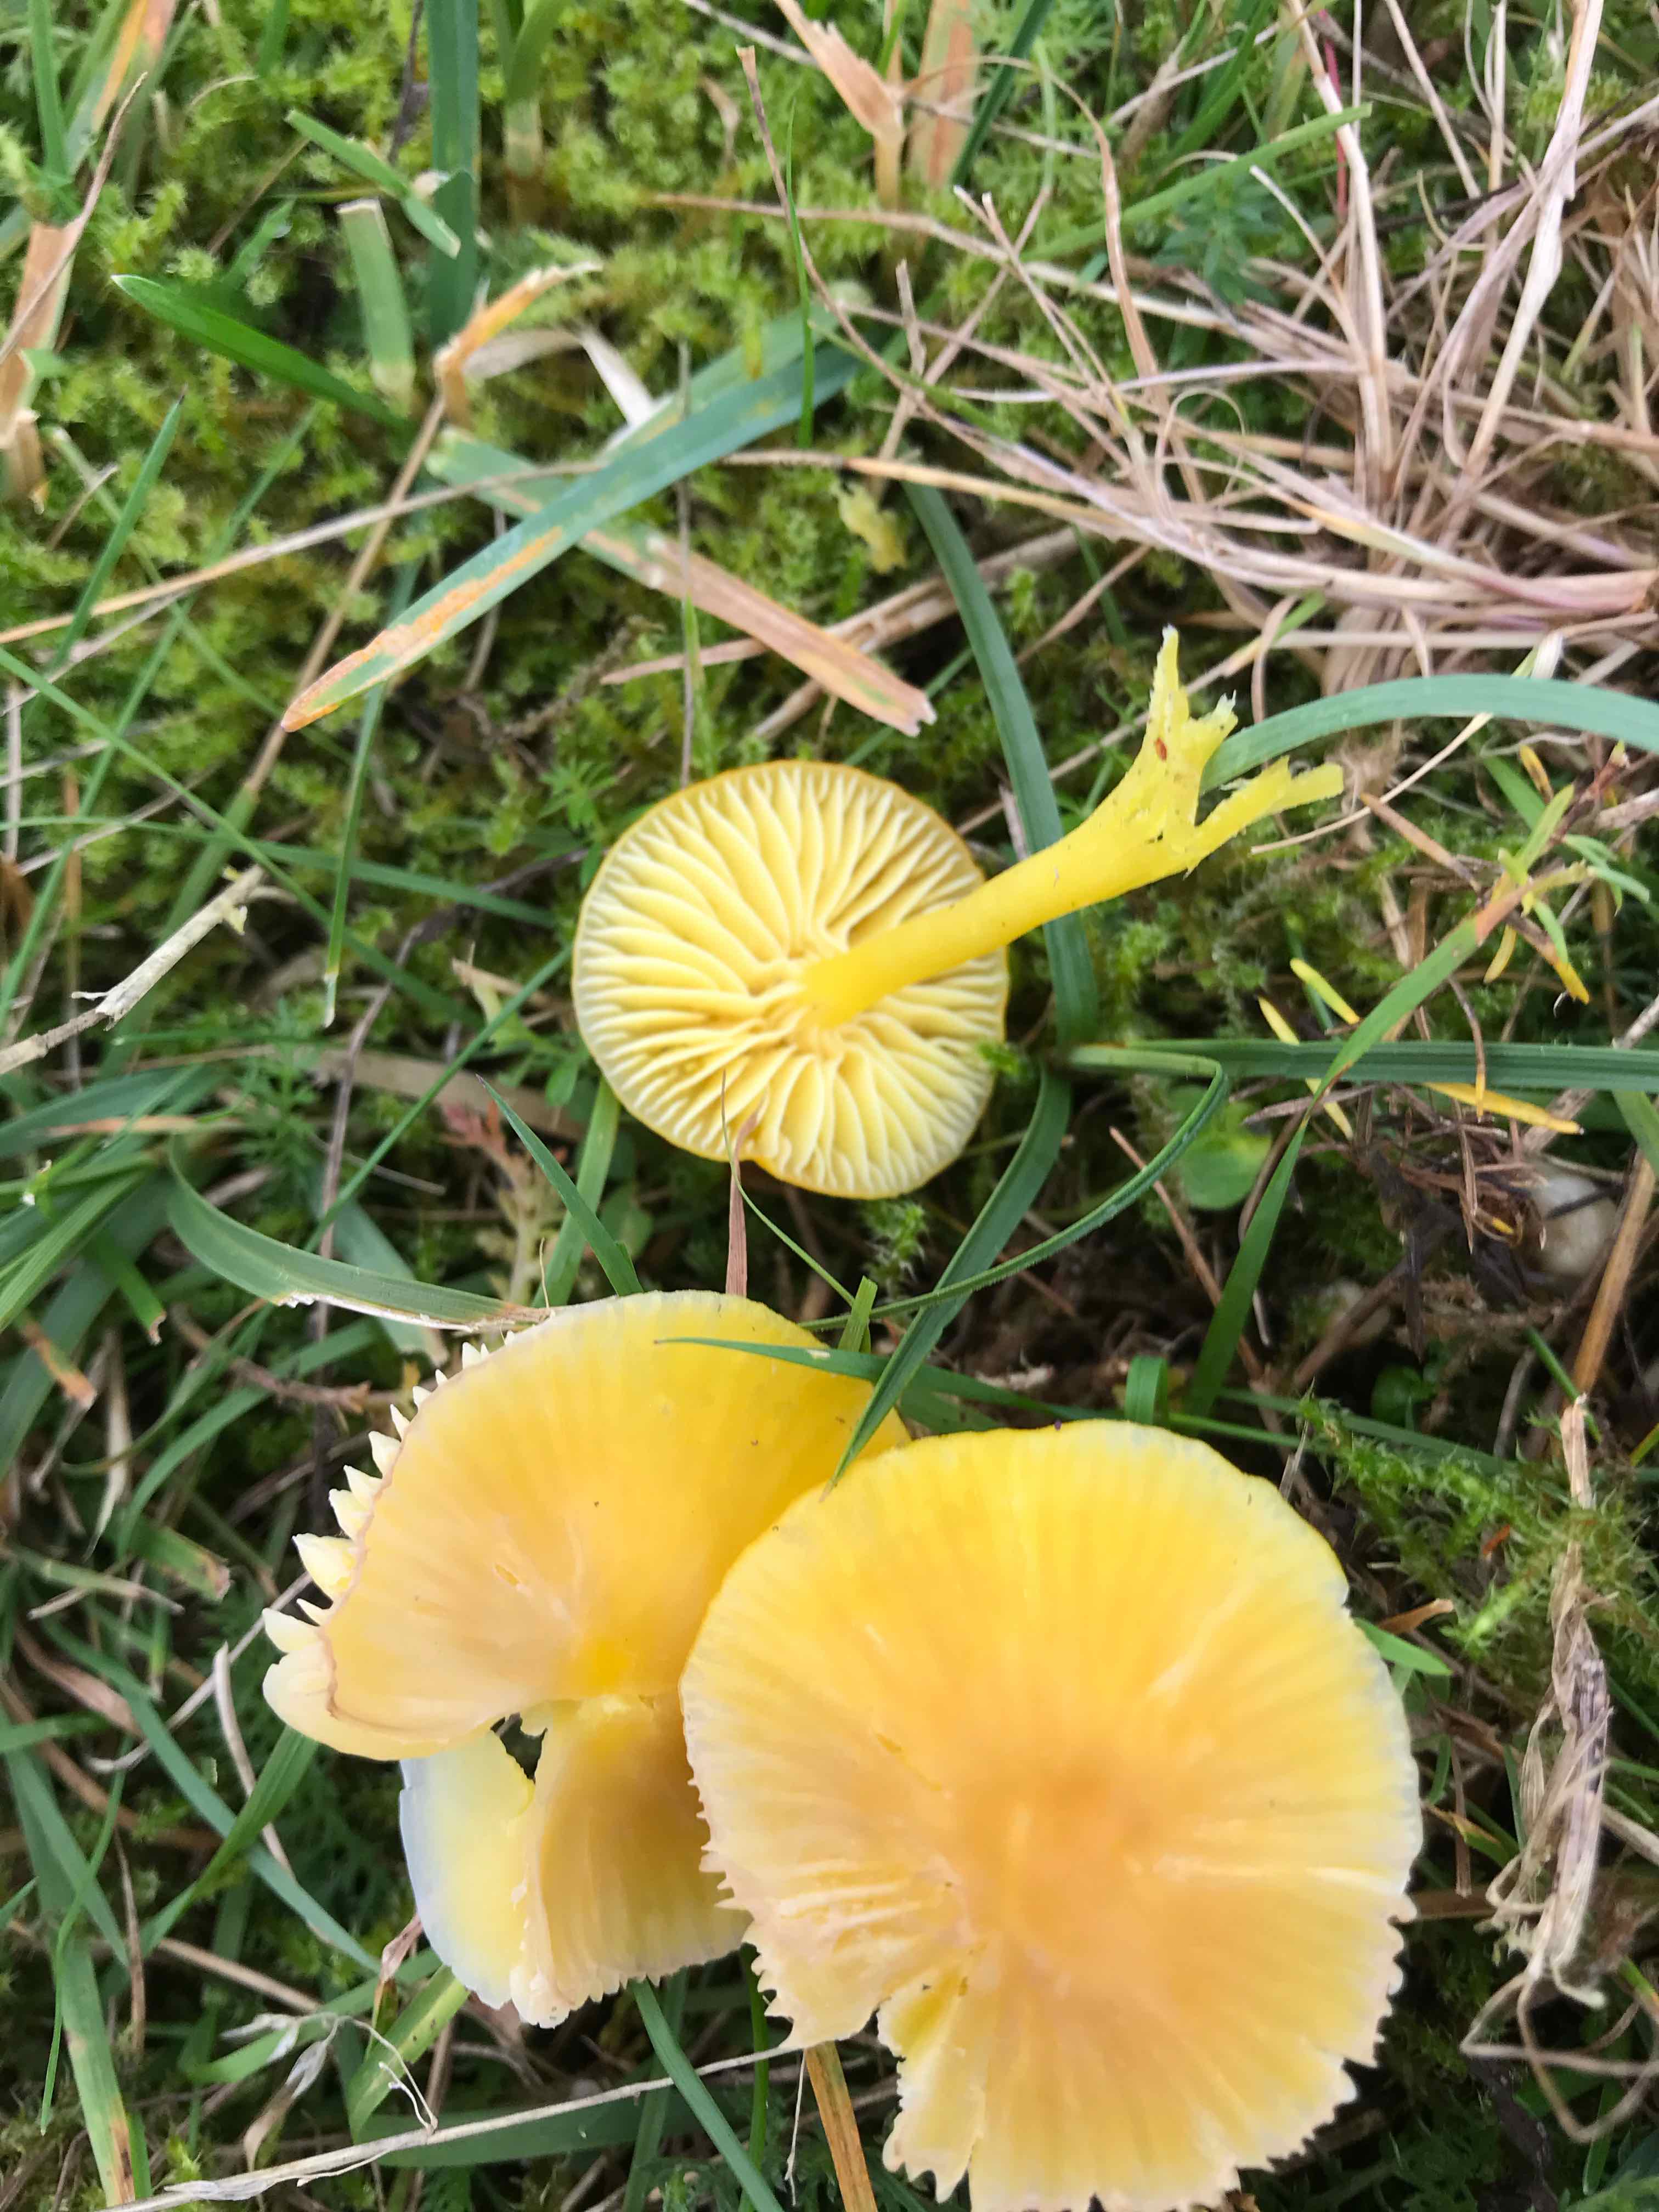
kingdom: Fungi
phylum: Basidiomycota
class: Agaricomycetes
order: Agaricales
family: Hygrophoraceae
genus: Hygrocybe
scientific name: Hygrocybe ceracea
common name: voksgul vokshat
